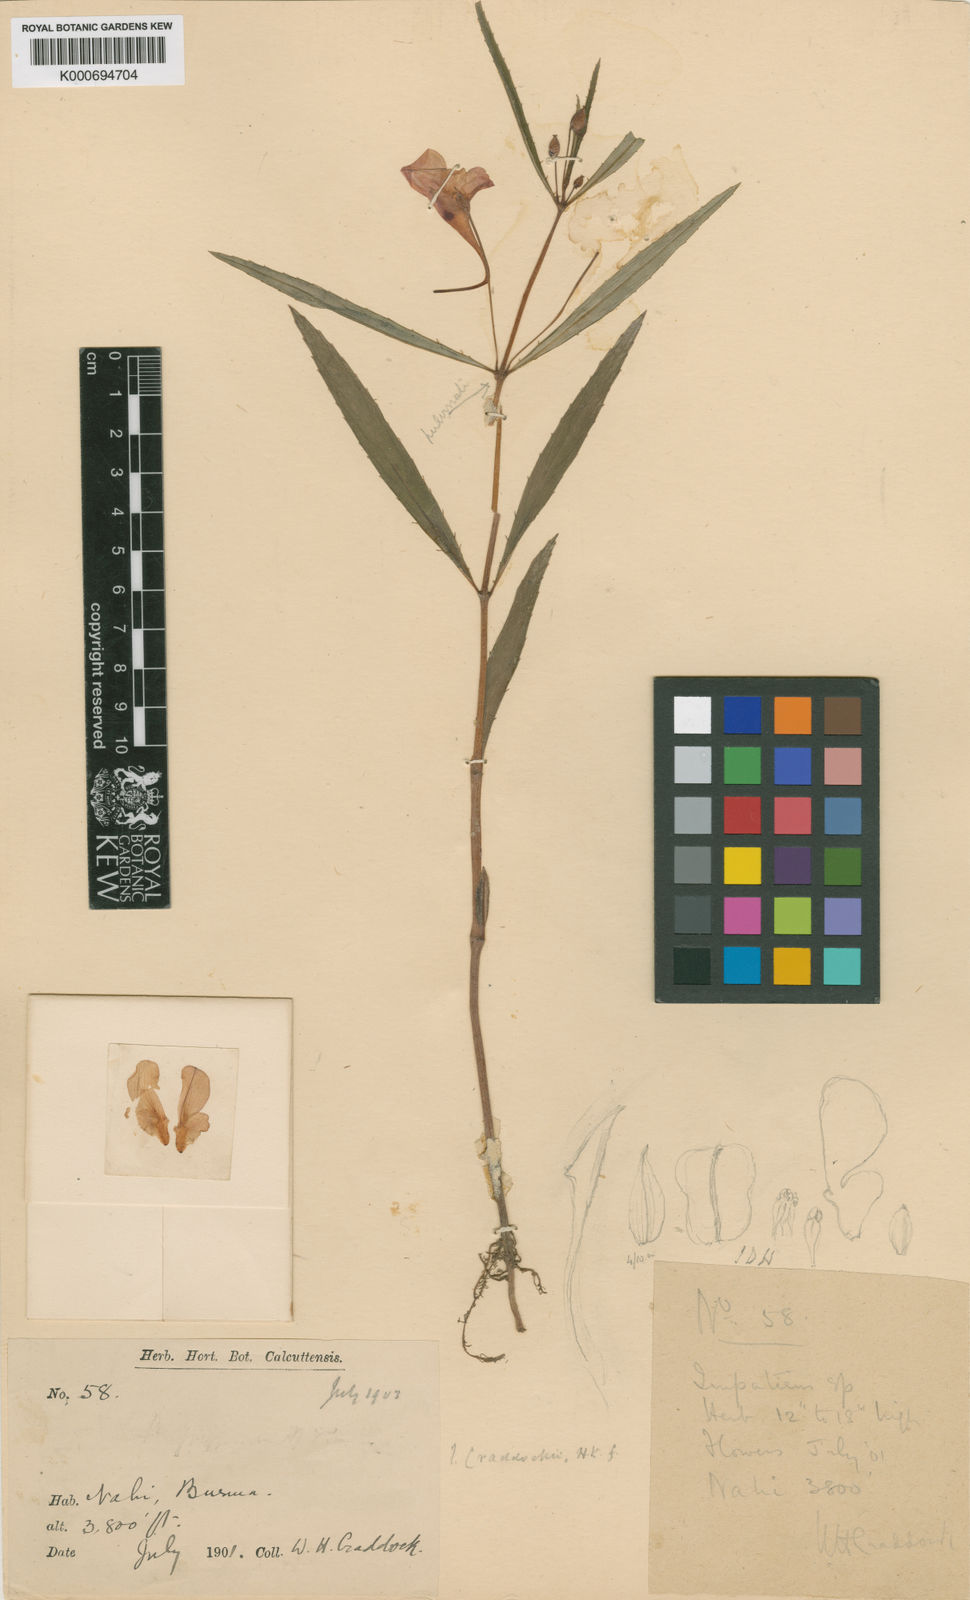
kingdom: Plantae
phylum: Tracheophyta
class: Magnoliopsida
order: Ericales
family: Balsaminaceae
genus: Impatiens
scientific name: Impatiens masonii
